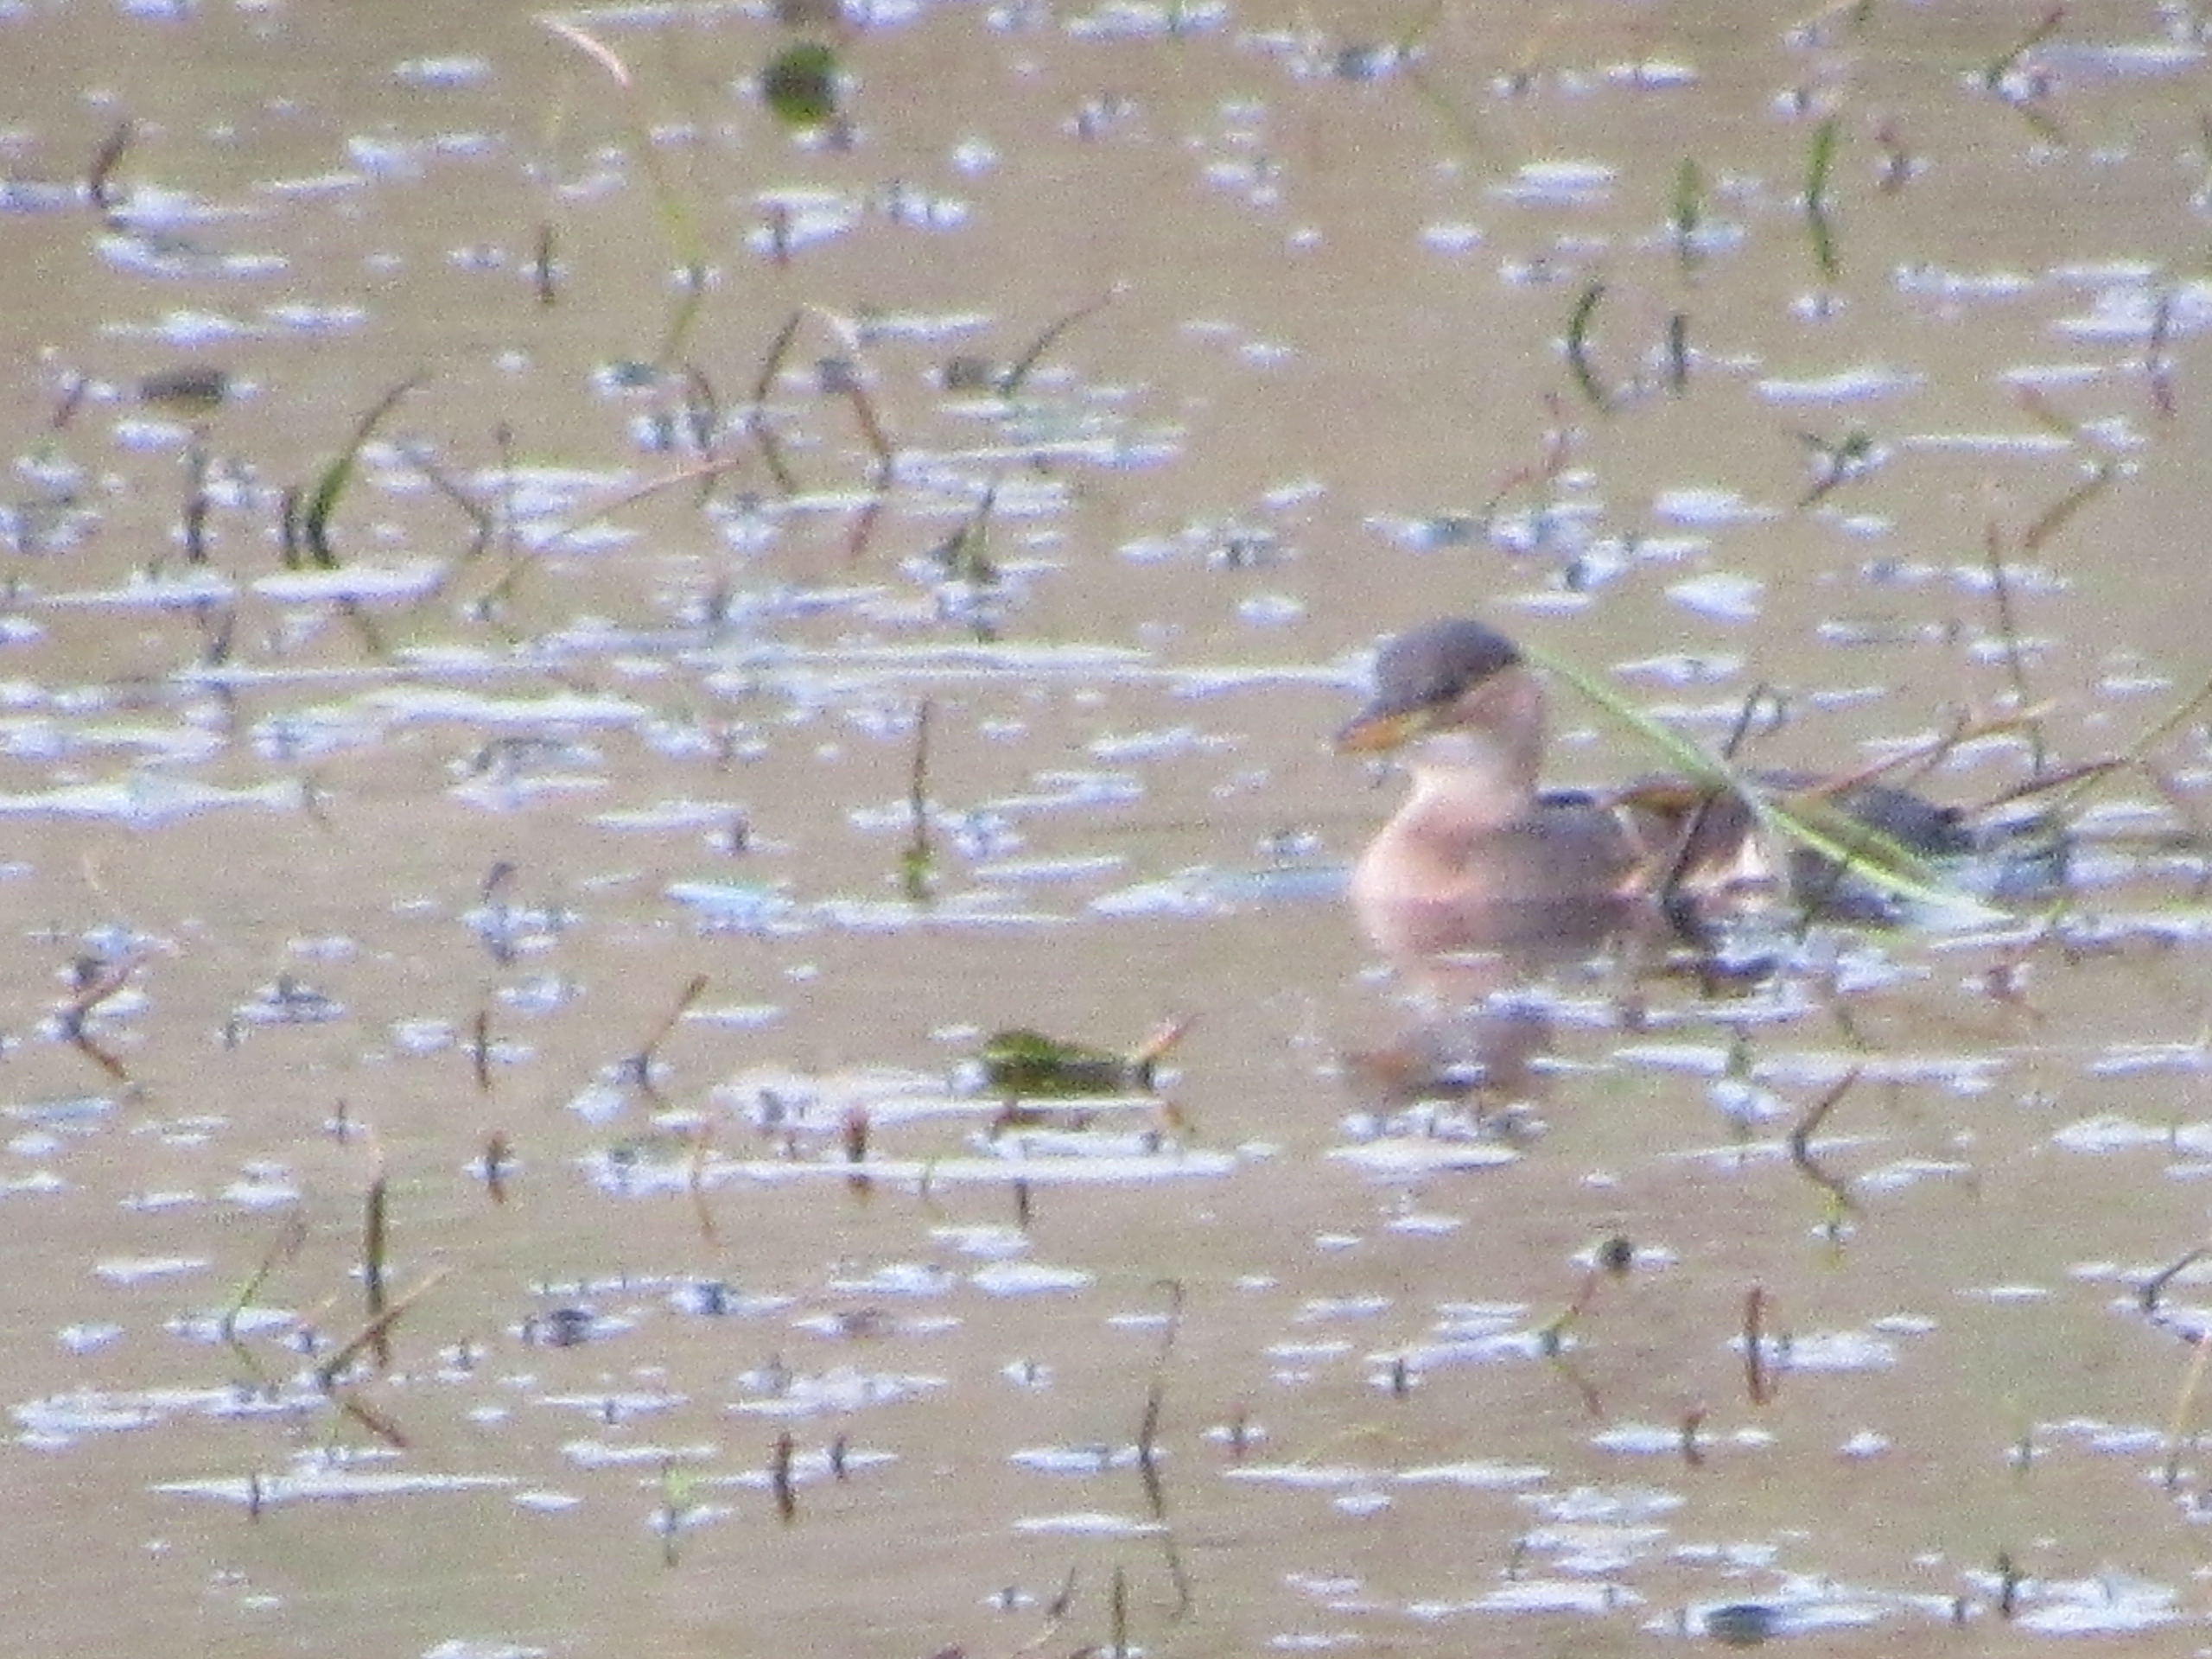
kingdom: Animalia
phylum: Chordata
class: Aves
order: Podicipediformes
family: Podicipedidae
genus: Tachybaptus
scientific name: Tachybaptus ruficollis
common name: Lille lappedykker
